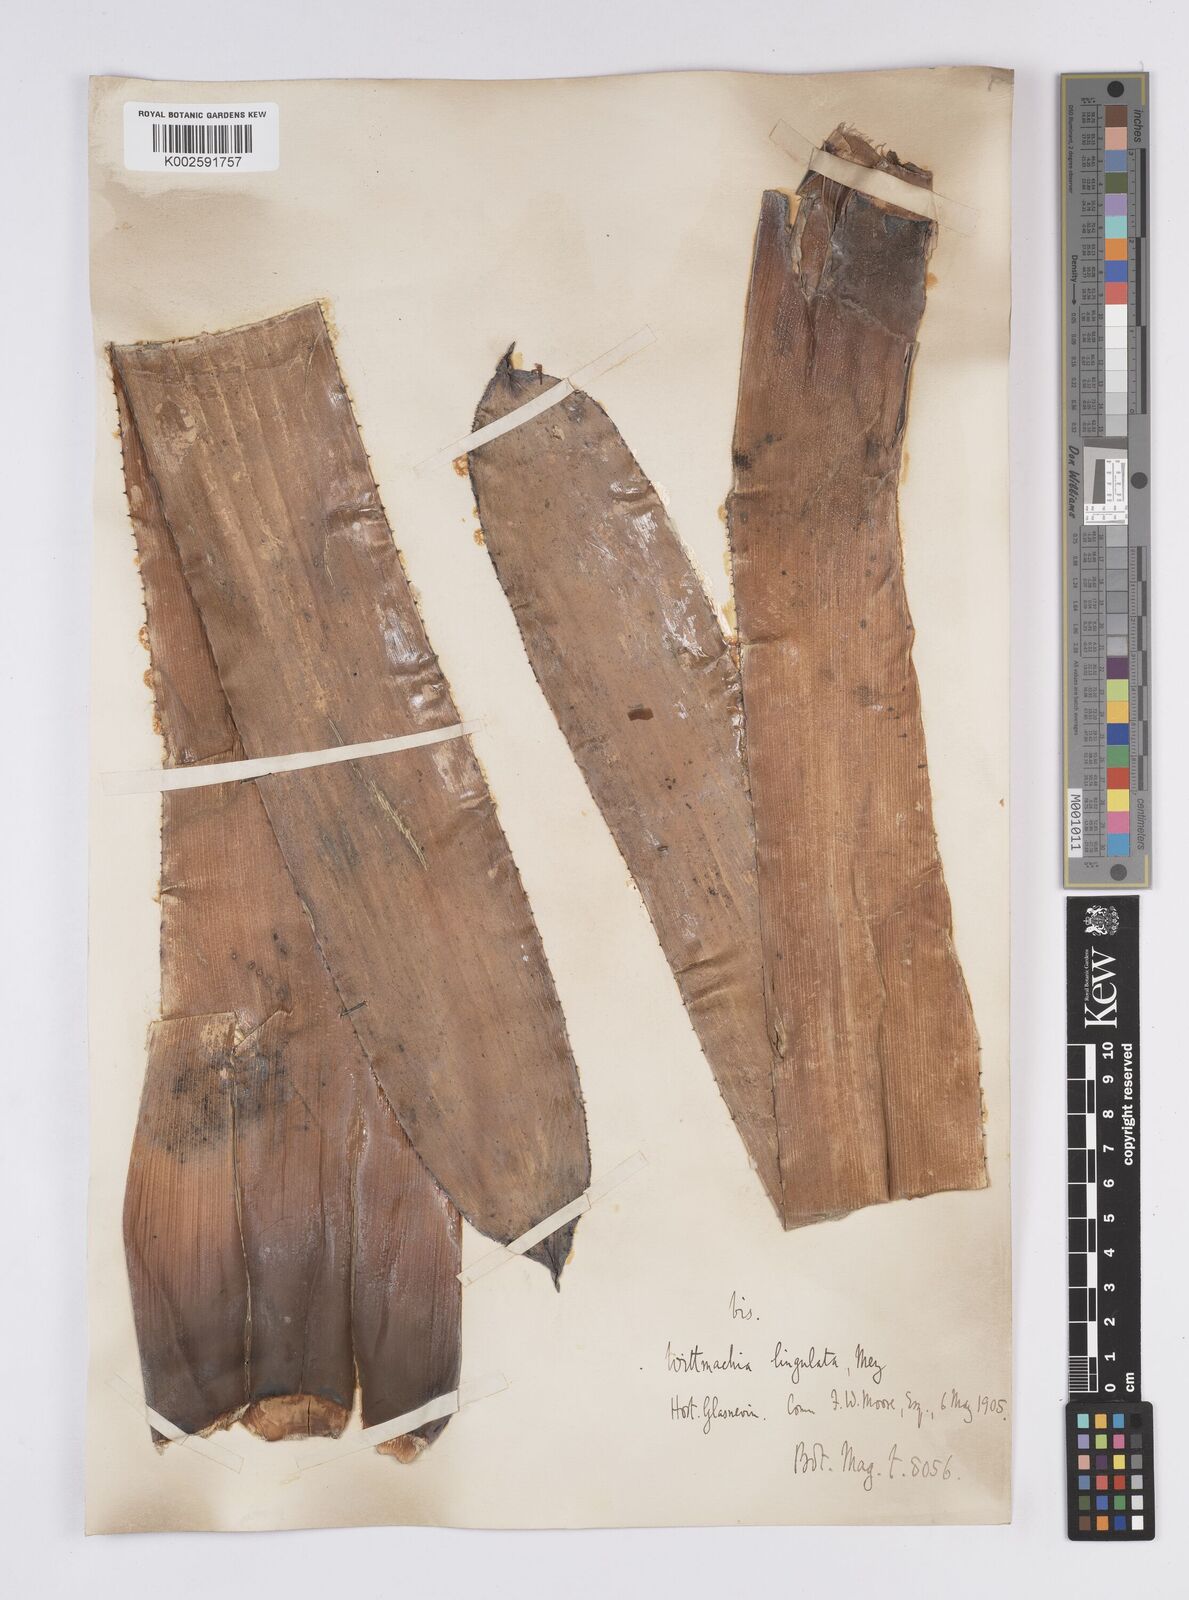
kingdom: Plantae
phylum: Tracheophyta
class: Liliopsida
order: Poales
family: Bromeliaceae
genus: Aechmea
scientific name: Aechmea
